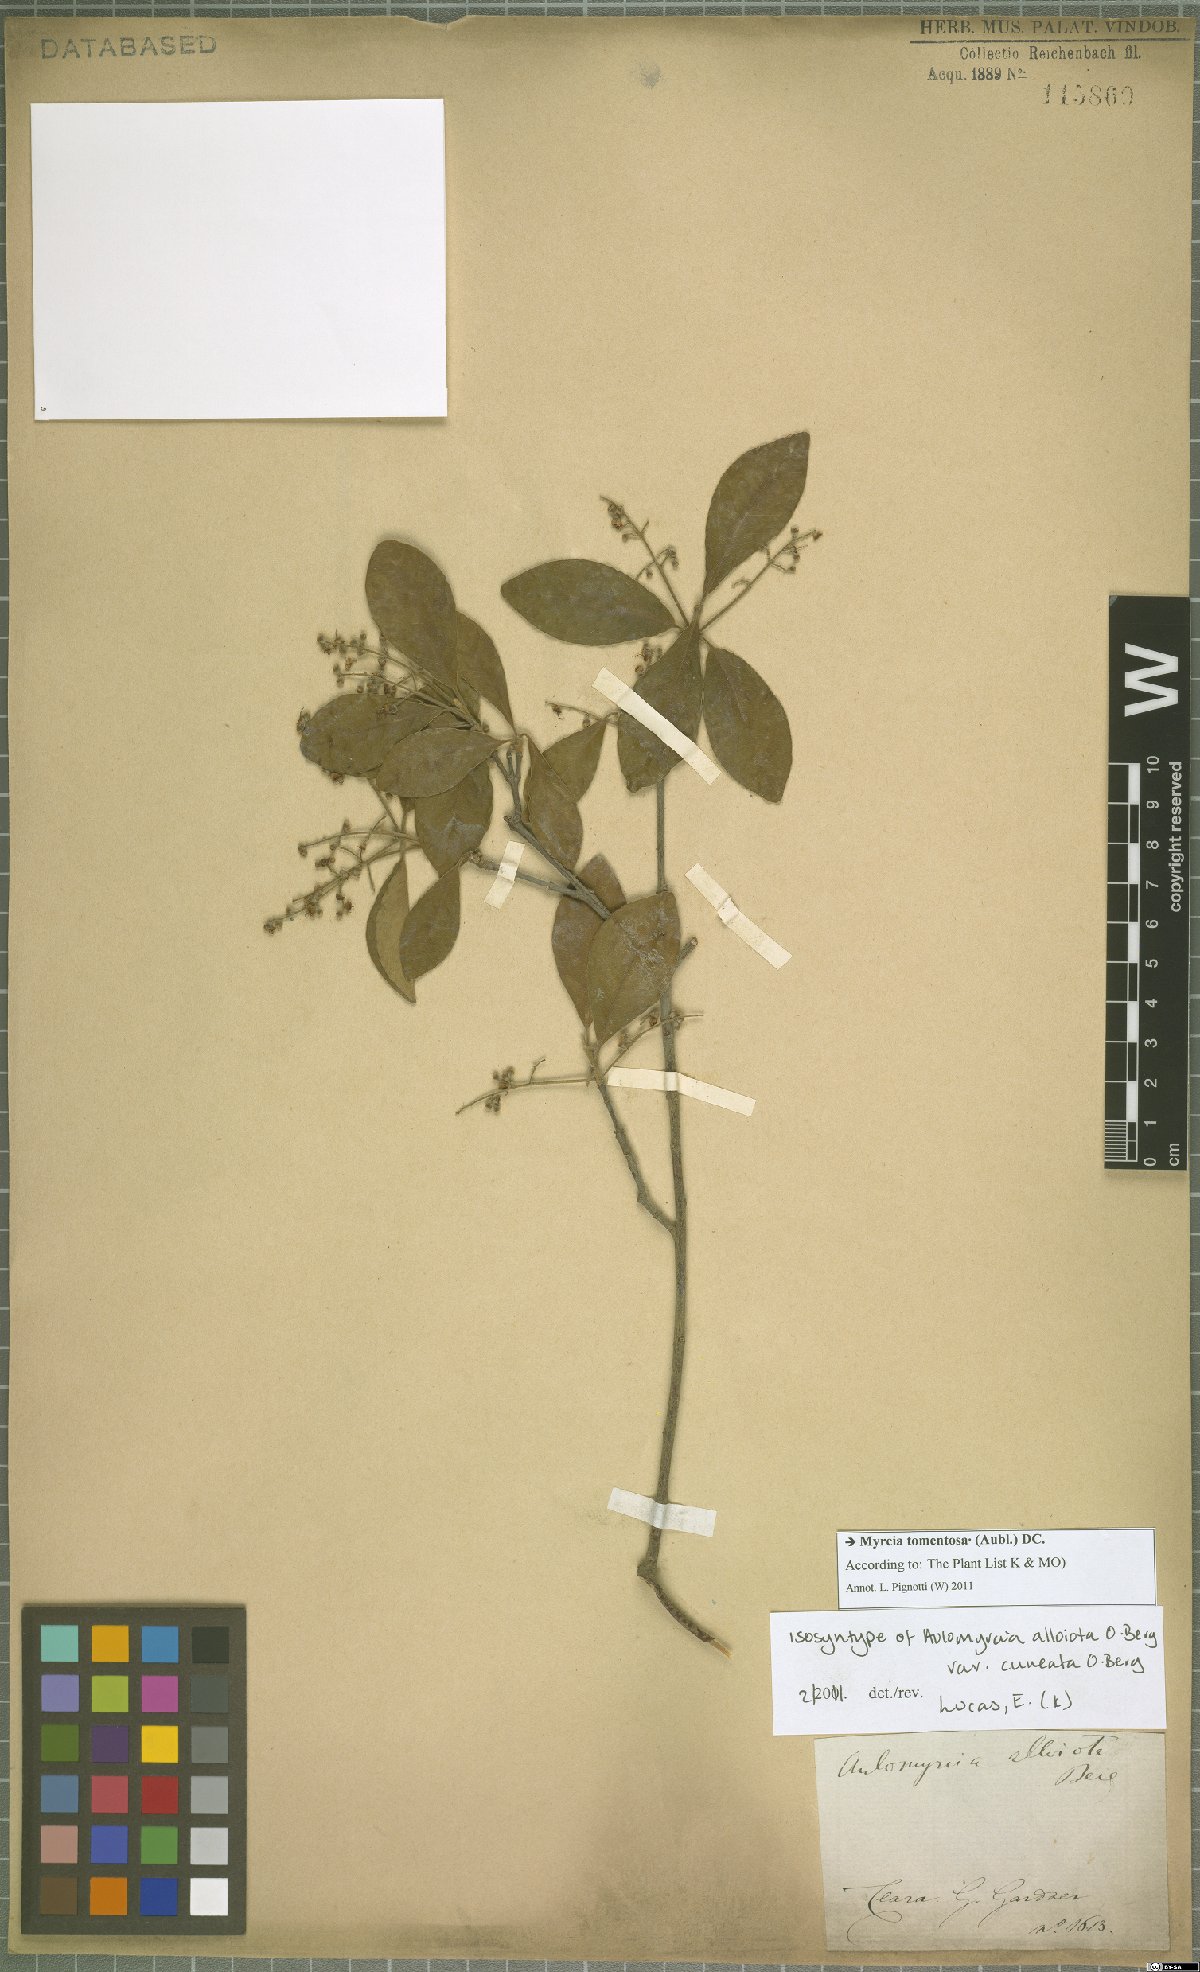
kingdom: Plantae
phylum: Tracheophyta
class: Magnoliopsida
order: Myrtales
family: Myrtaceae
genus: Myrcia
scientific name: Myrcia tomentosa
